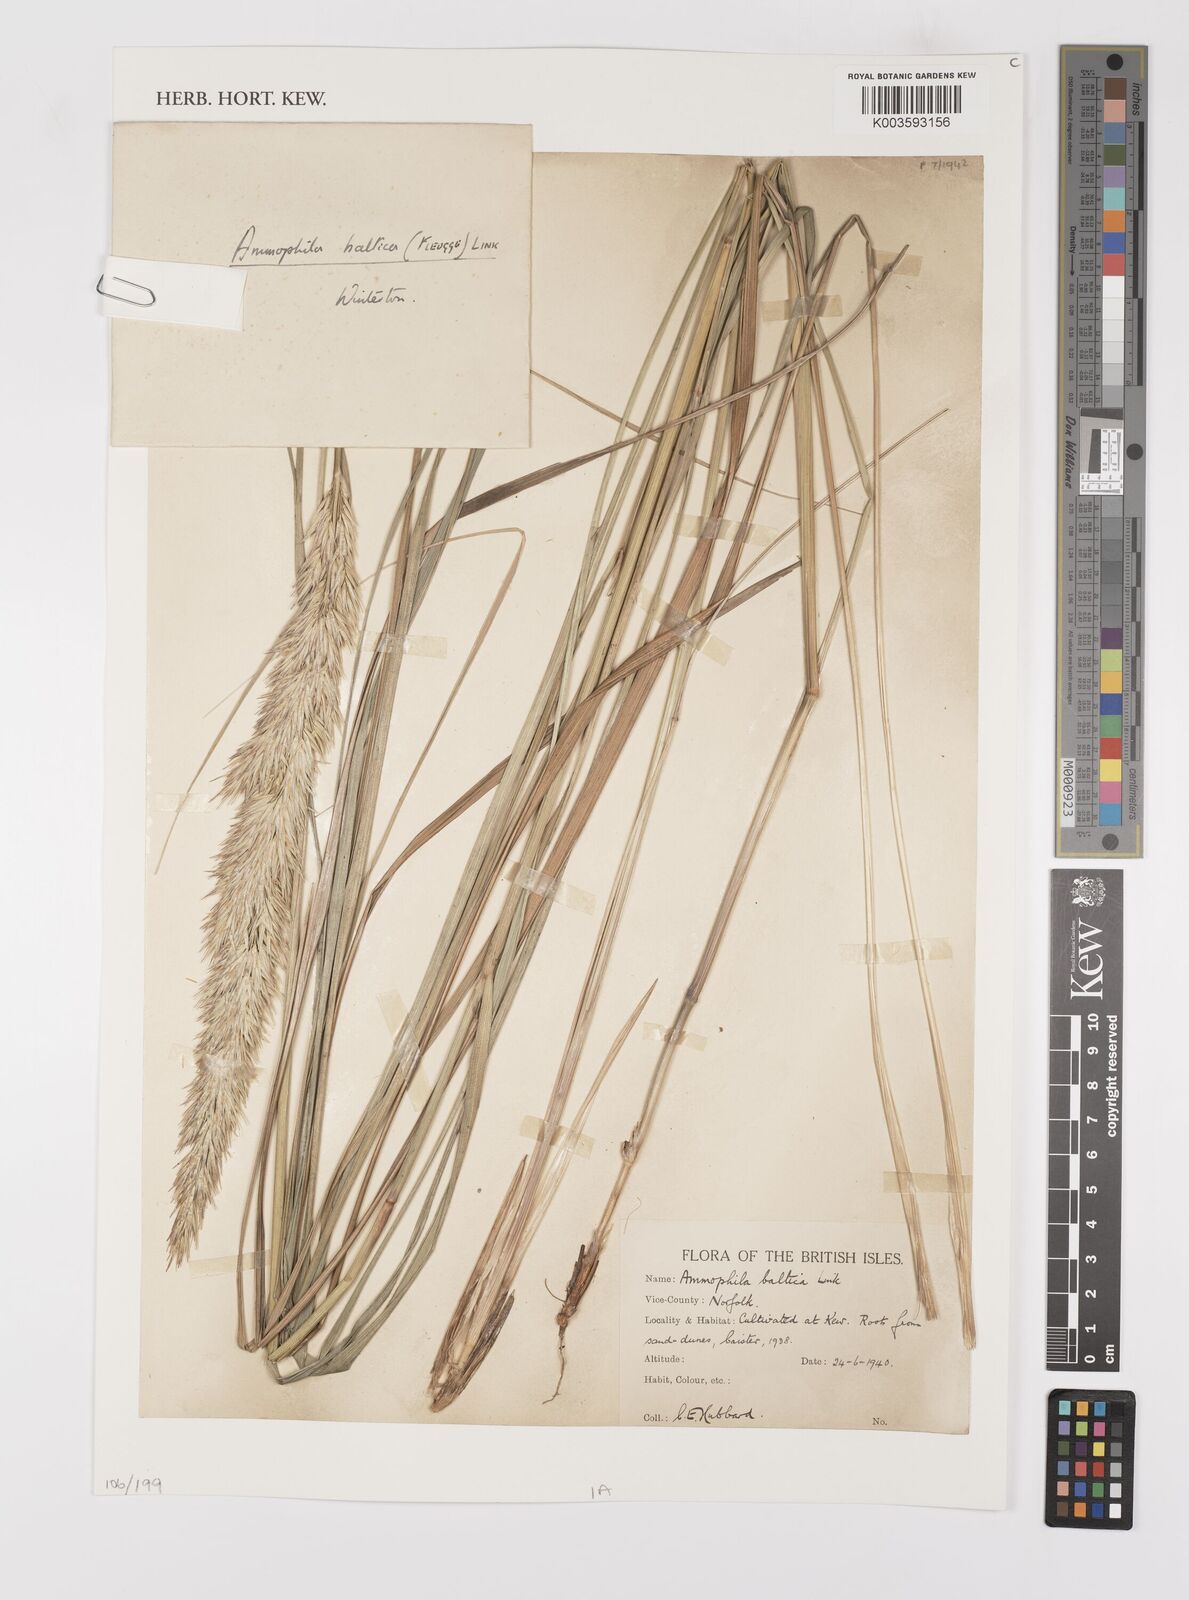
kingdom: Plantae
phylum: Tracheophyta
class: Liliopsida
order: Poales
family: Poaceae
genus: Calamagrostis
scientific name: Calamagrostis baltica
